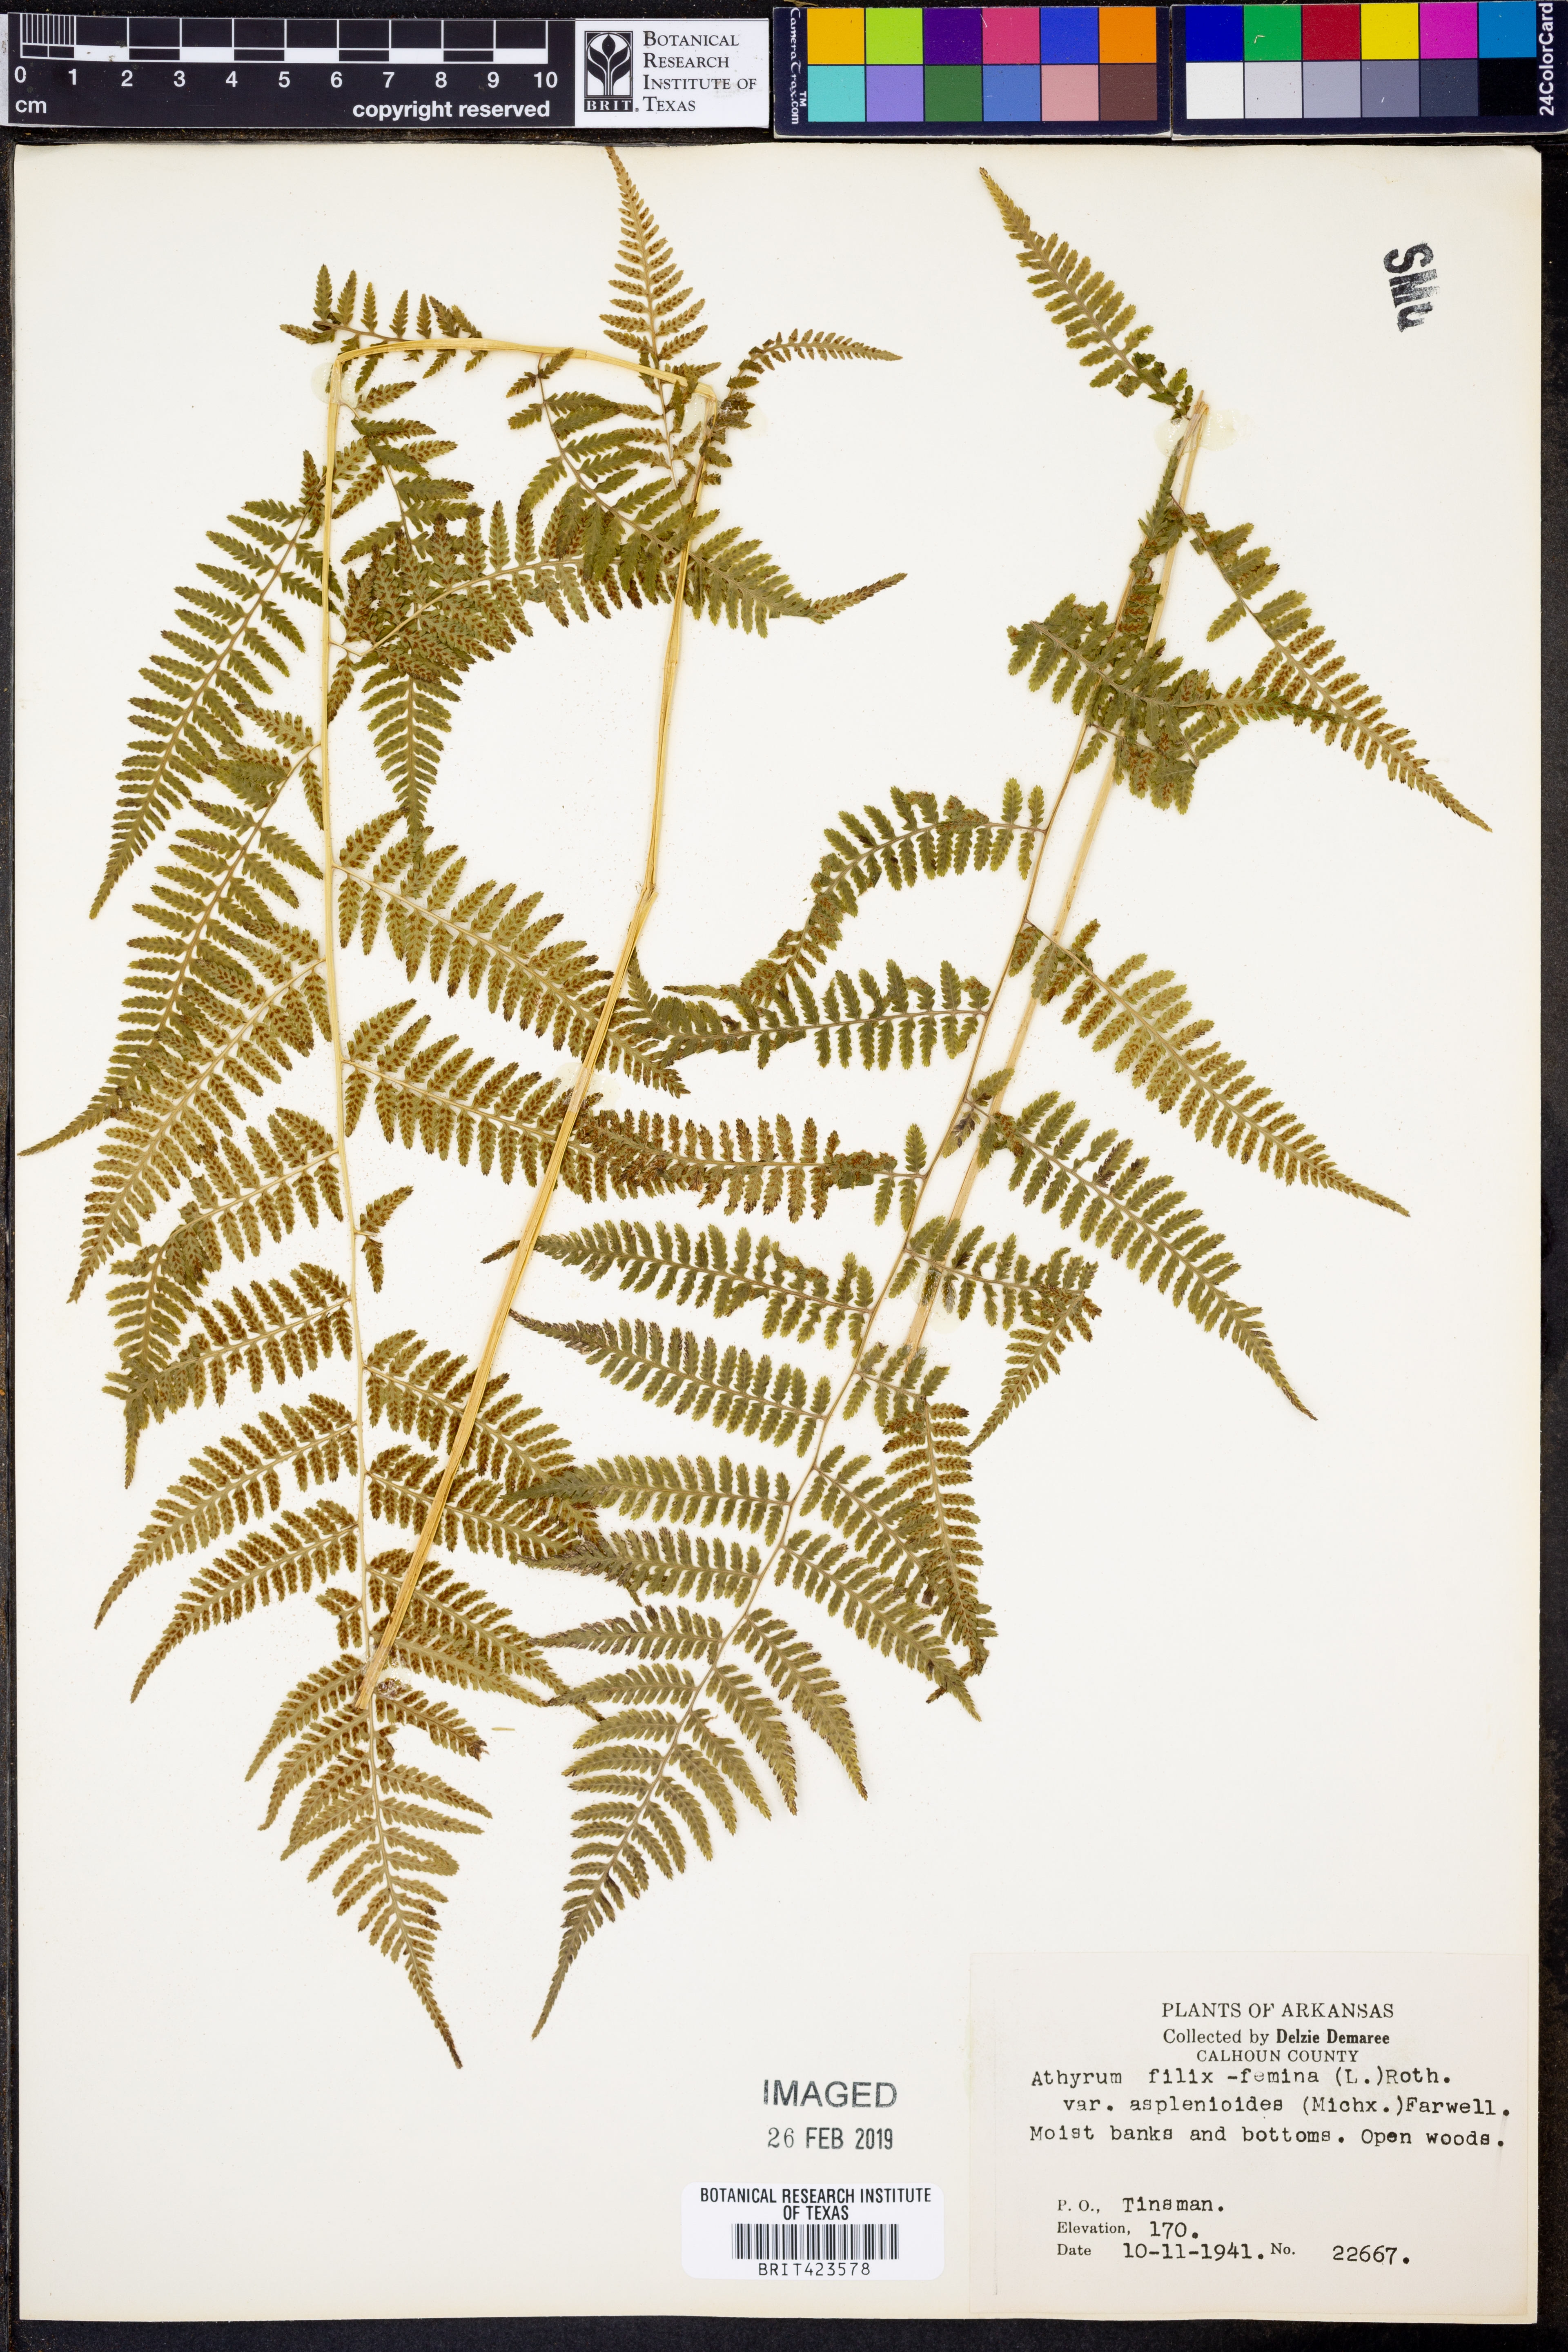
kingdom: Plantae
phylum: Tracheophyta
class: Polypodiopsida
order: Polypodiales
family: Athyriaceae
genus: Athyrium
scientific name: Athyrium asplenioides
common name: Southern lady fern
